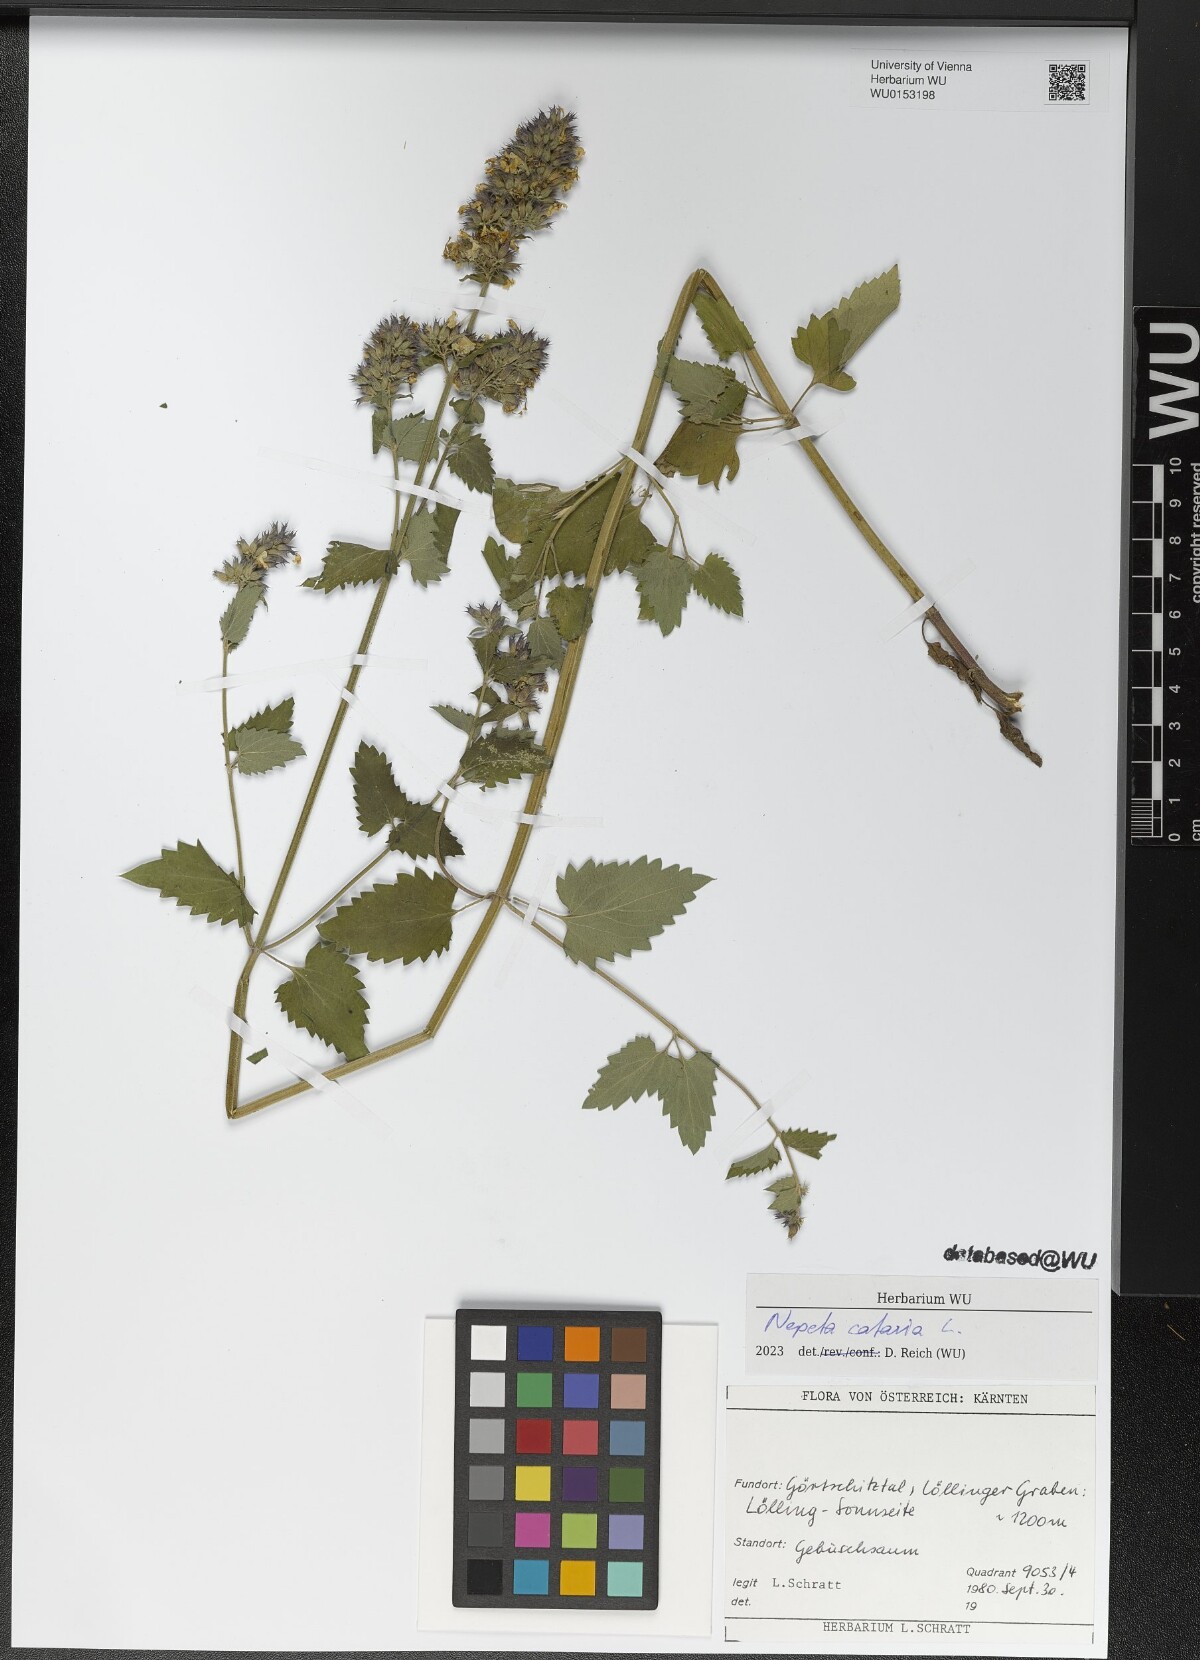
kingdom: Plantae
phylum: Tracheophyta
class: Magnoliopsida
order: Lamiales
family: Lamiaceae
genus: Nepeta
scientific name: Nepeta cataria
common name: Catnip
